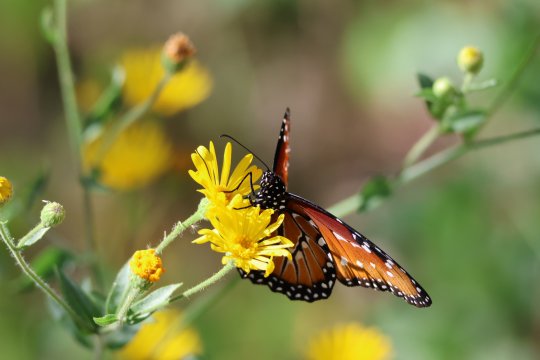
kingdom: Animalia
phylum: Arthropoda
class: Insecta
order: Lepidoptera
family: Nymphalidae
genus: Danaus
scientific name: Danaus gilippus
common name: Queen
